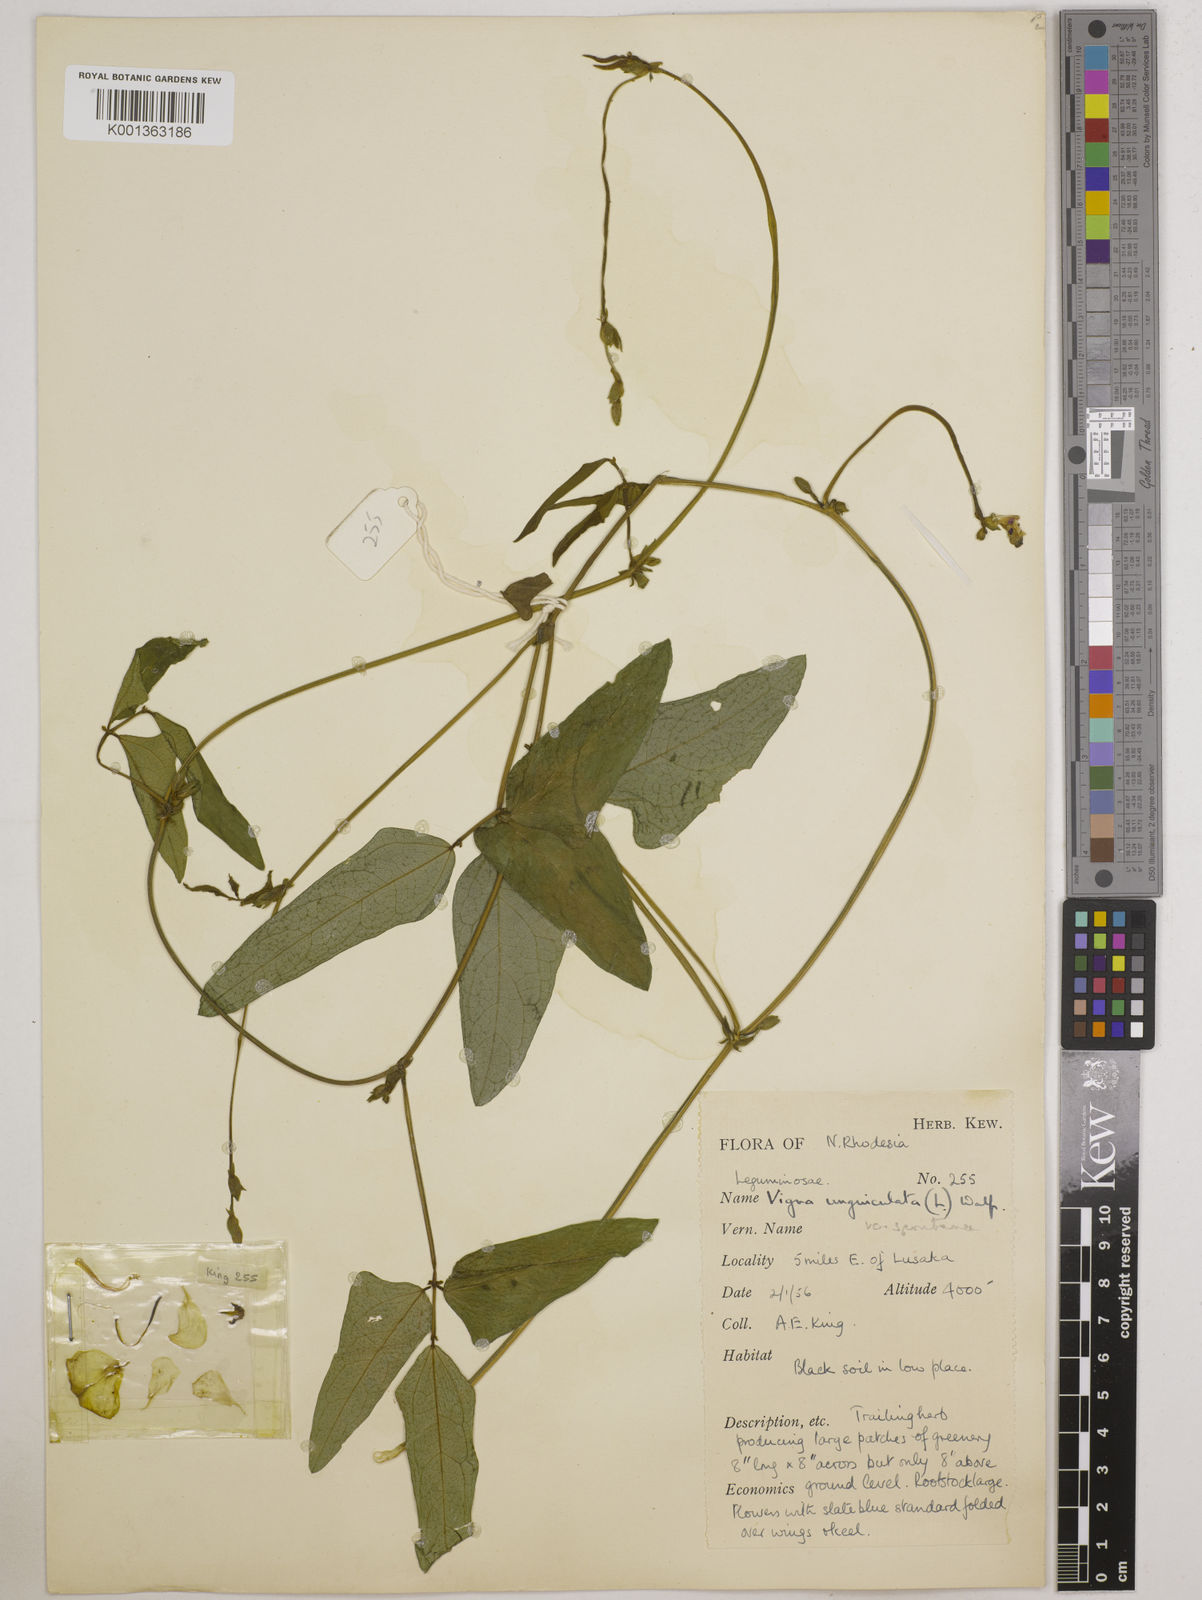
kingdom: Plantae
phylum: Tracheophyta
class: Magnoliopsida
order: Fabales
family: Fabaceae
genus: Vigna
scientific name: Vigna unguiculata
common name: Cowpea
